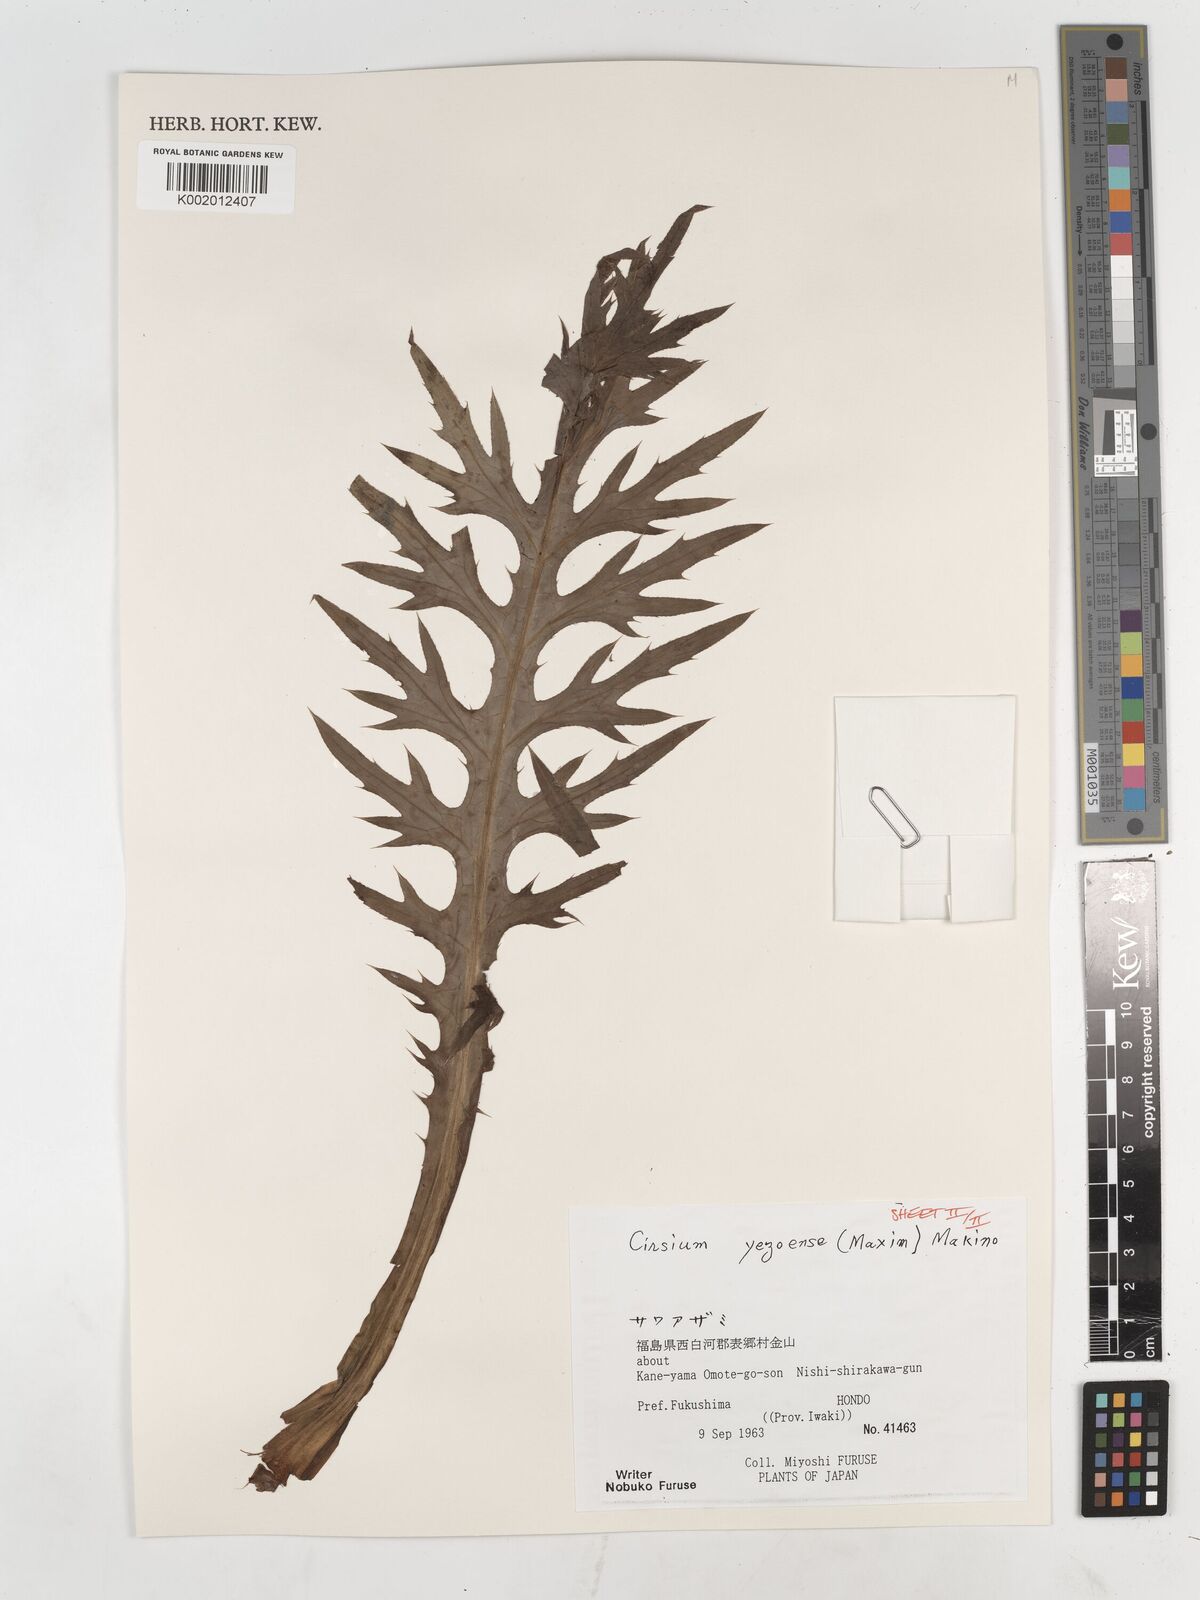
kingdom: Plantae
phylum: Tracheophyta
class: Magnoliopsida
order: Asterales
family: Asteraceae
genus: Cirsium
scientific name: Cirsium yezoense
